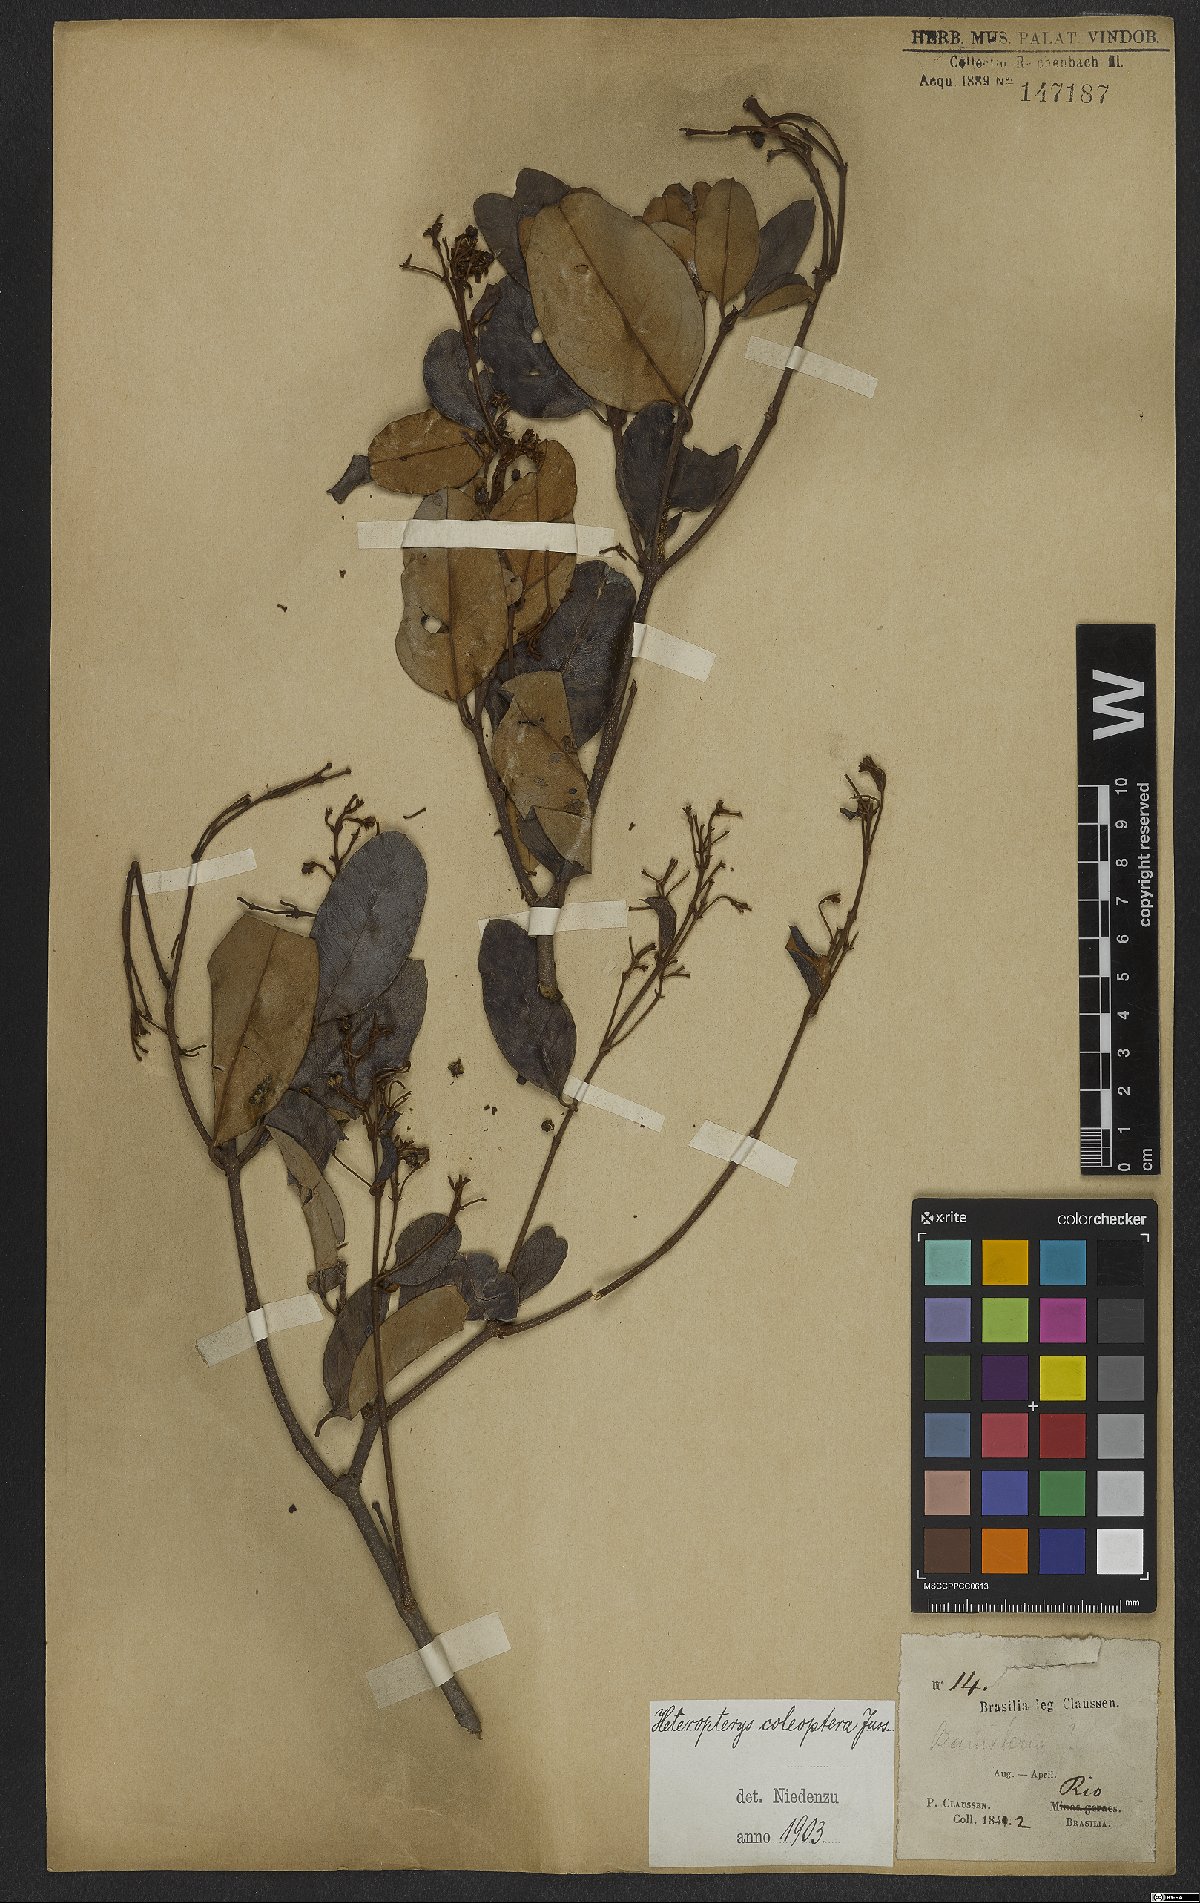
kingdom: Plantae
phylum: Tracheophyta
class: Magnoliopsida
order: Malpighiales
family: Malpighiaceae
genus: Heteropterys
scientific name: Heteropterys coleoptera
